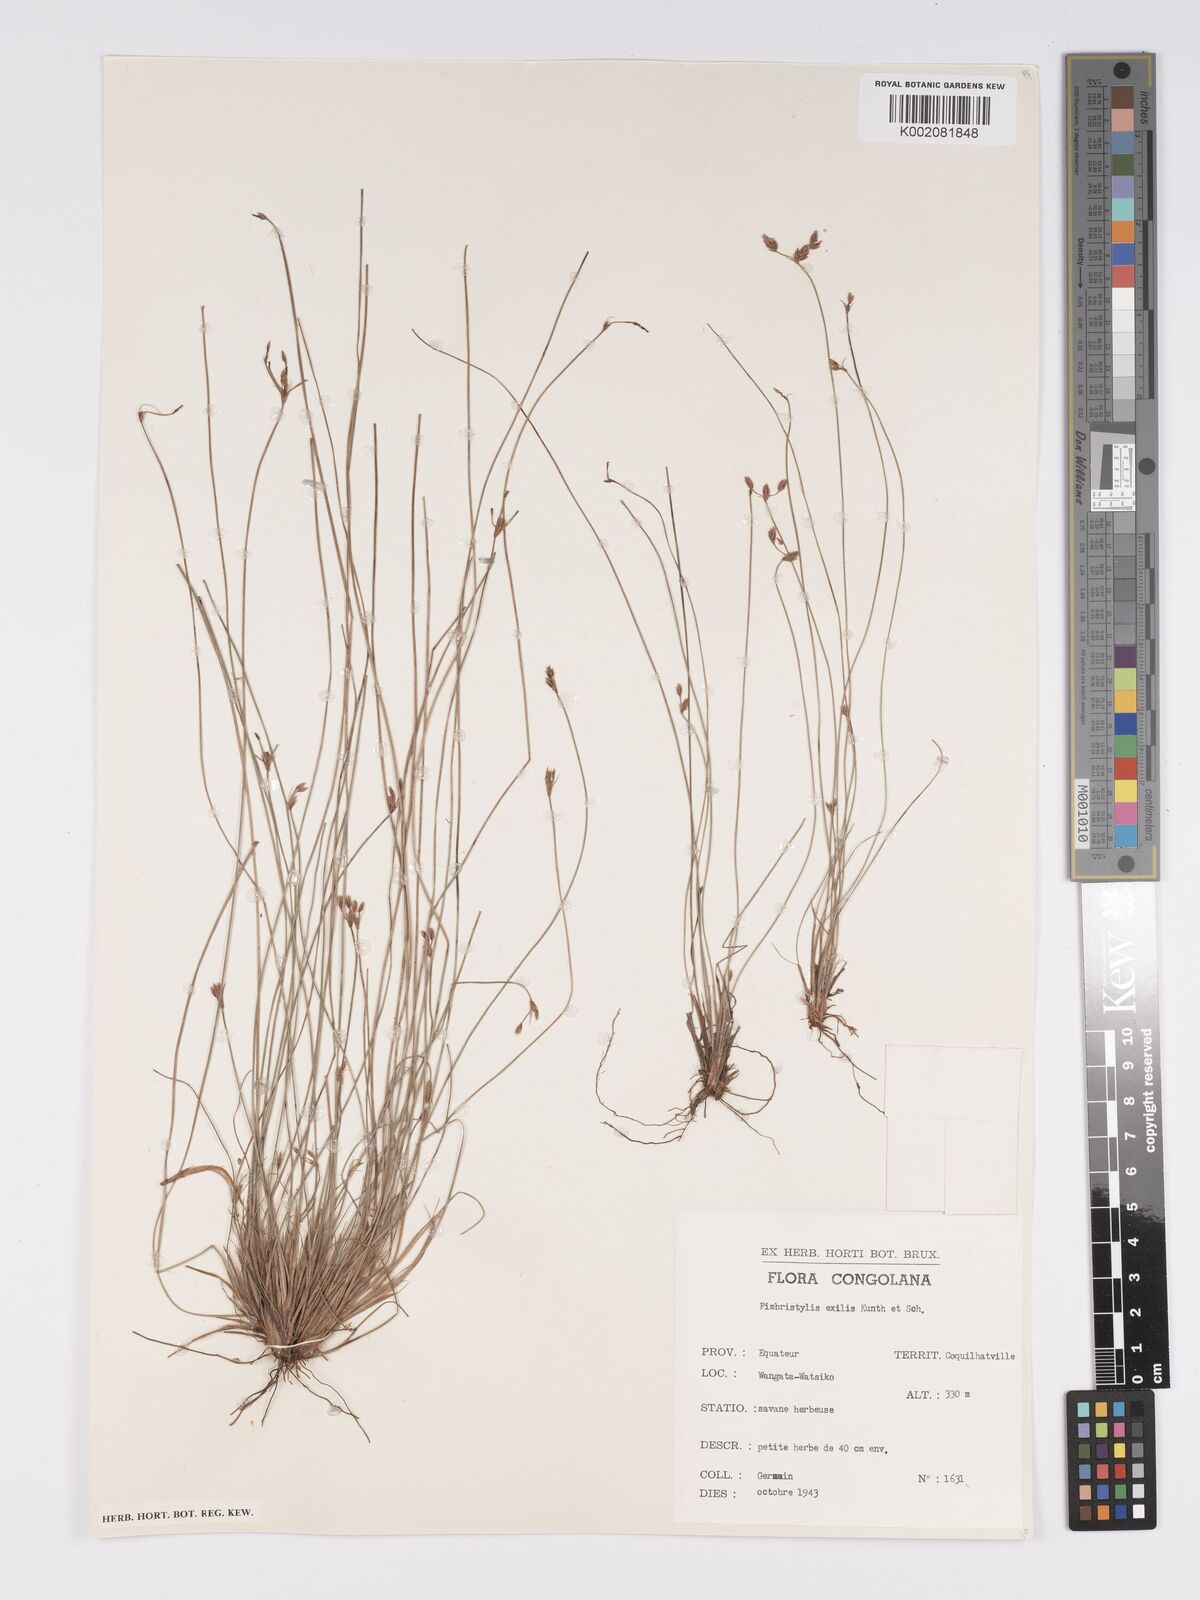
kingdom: Plantae
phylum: Tracheophyta
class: Liliopsida
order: Poales
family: Cyperaceae
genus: Bulbostylis
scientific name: Bulbostylis hispidula
